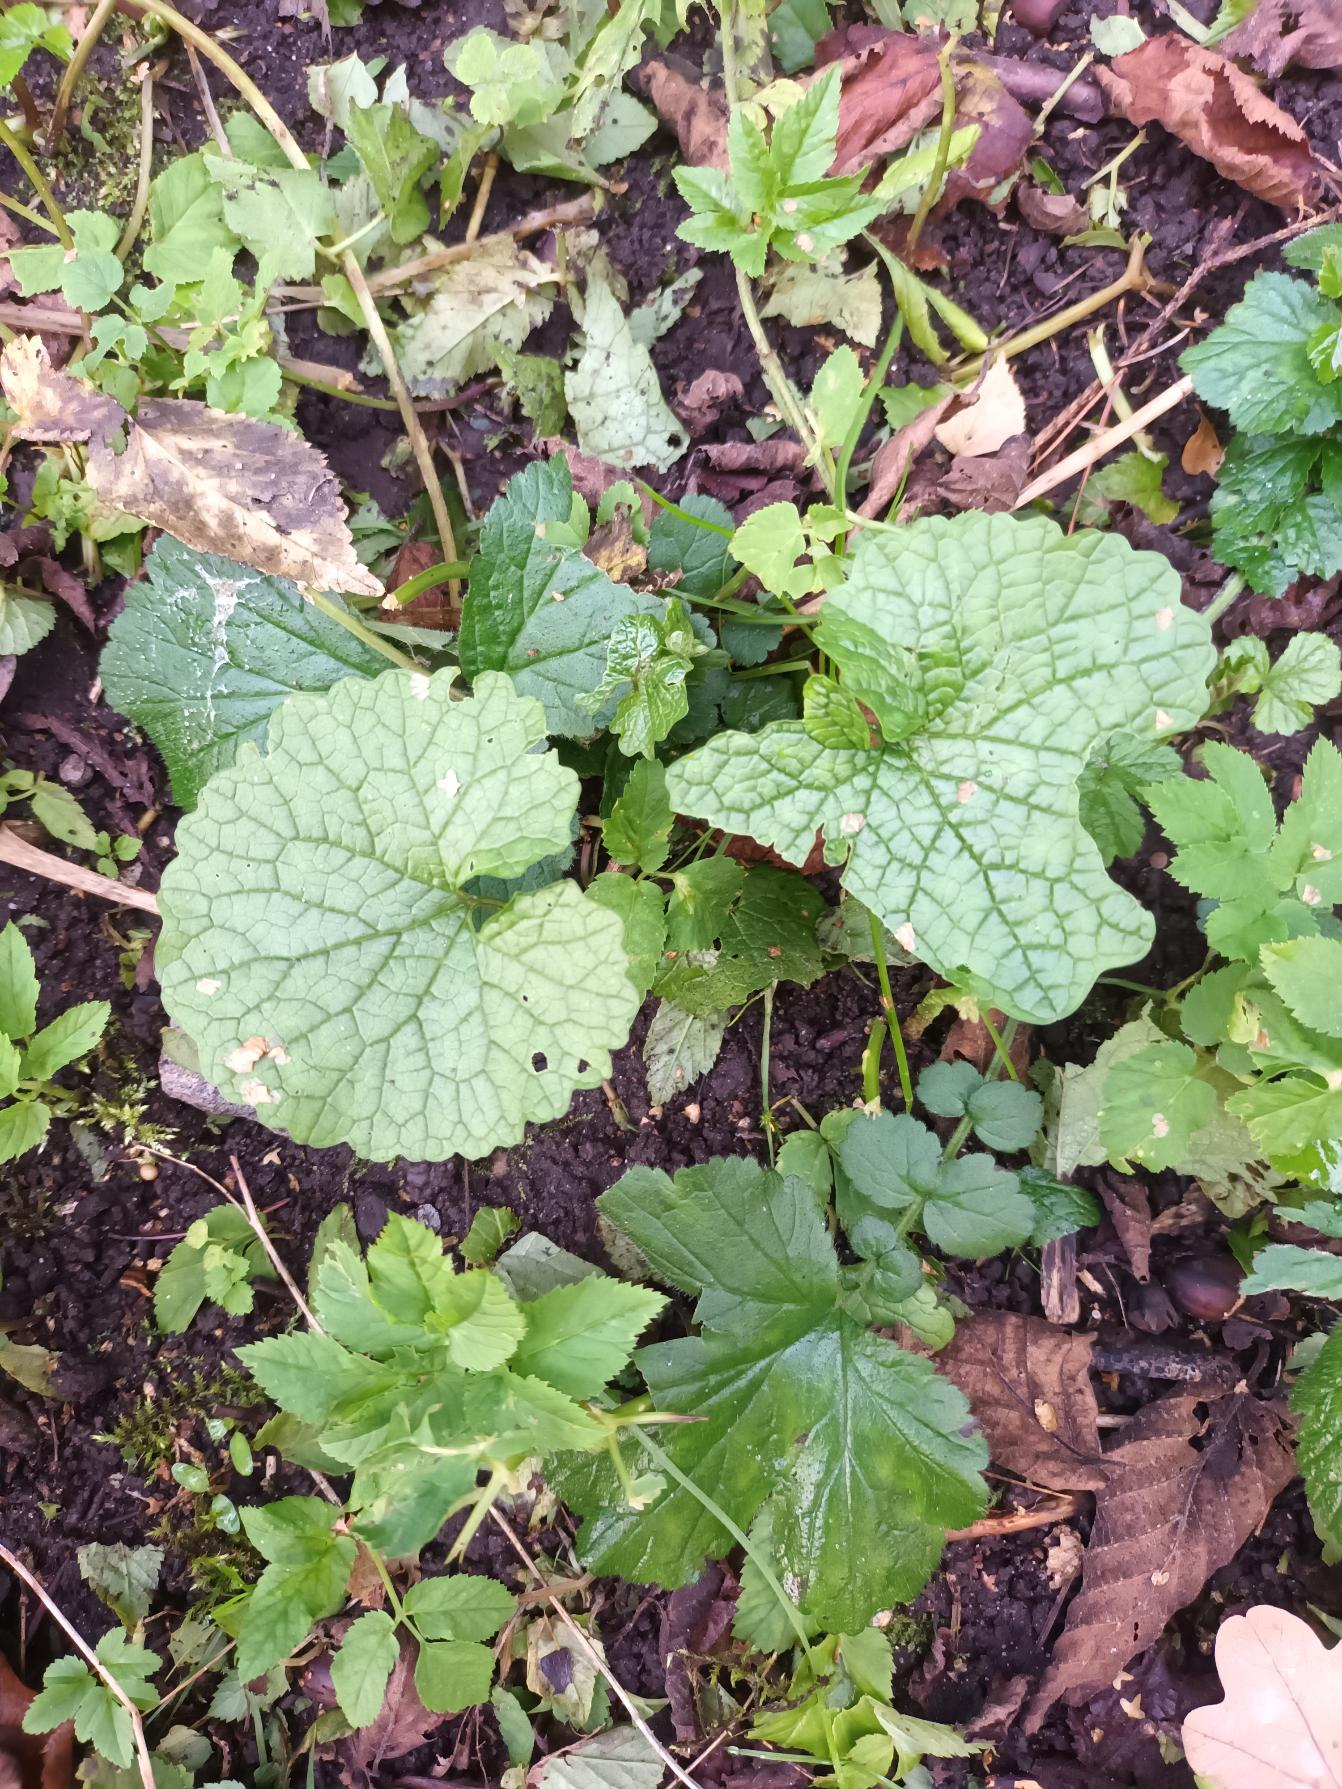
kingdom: Plantae
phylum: Tracheophyta
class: Magnoliopsida
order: Brassicales
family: Brassicaceae
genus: Alliaria
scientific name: Alliaria petiolata
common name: Løgkarse
